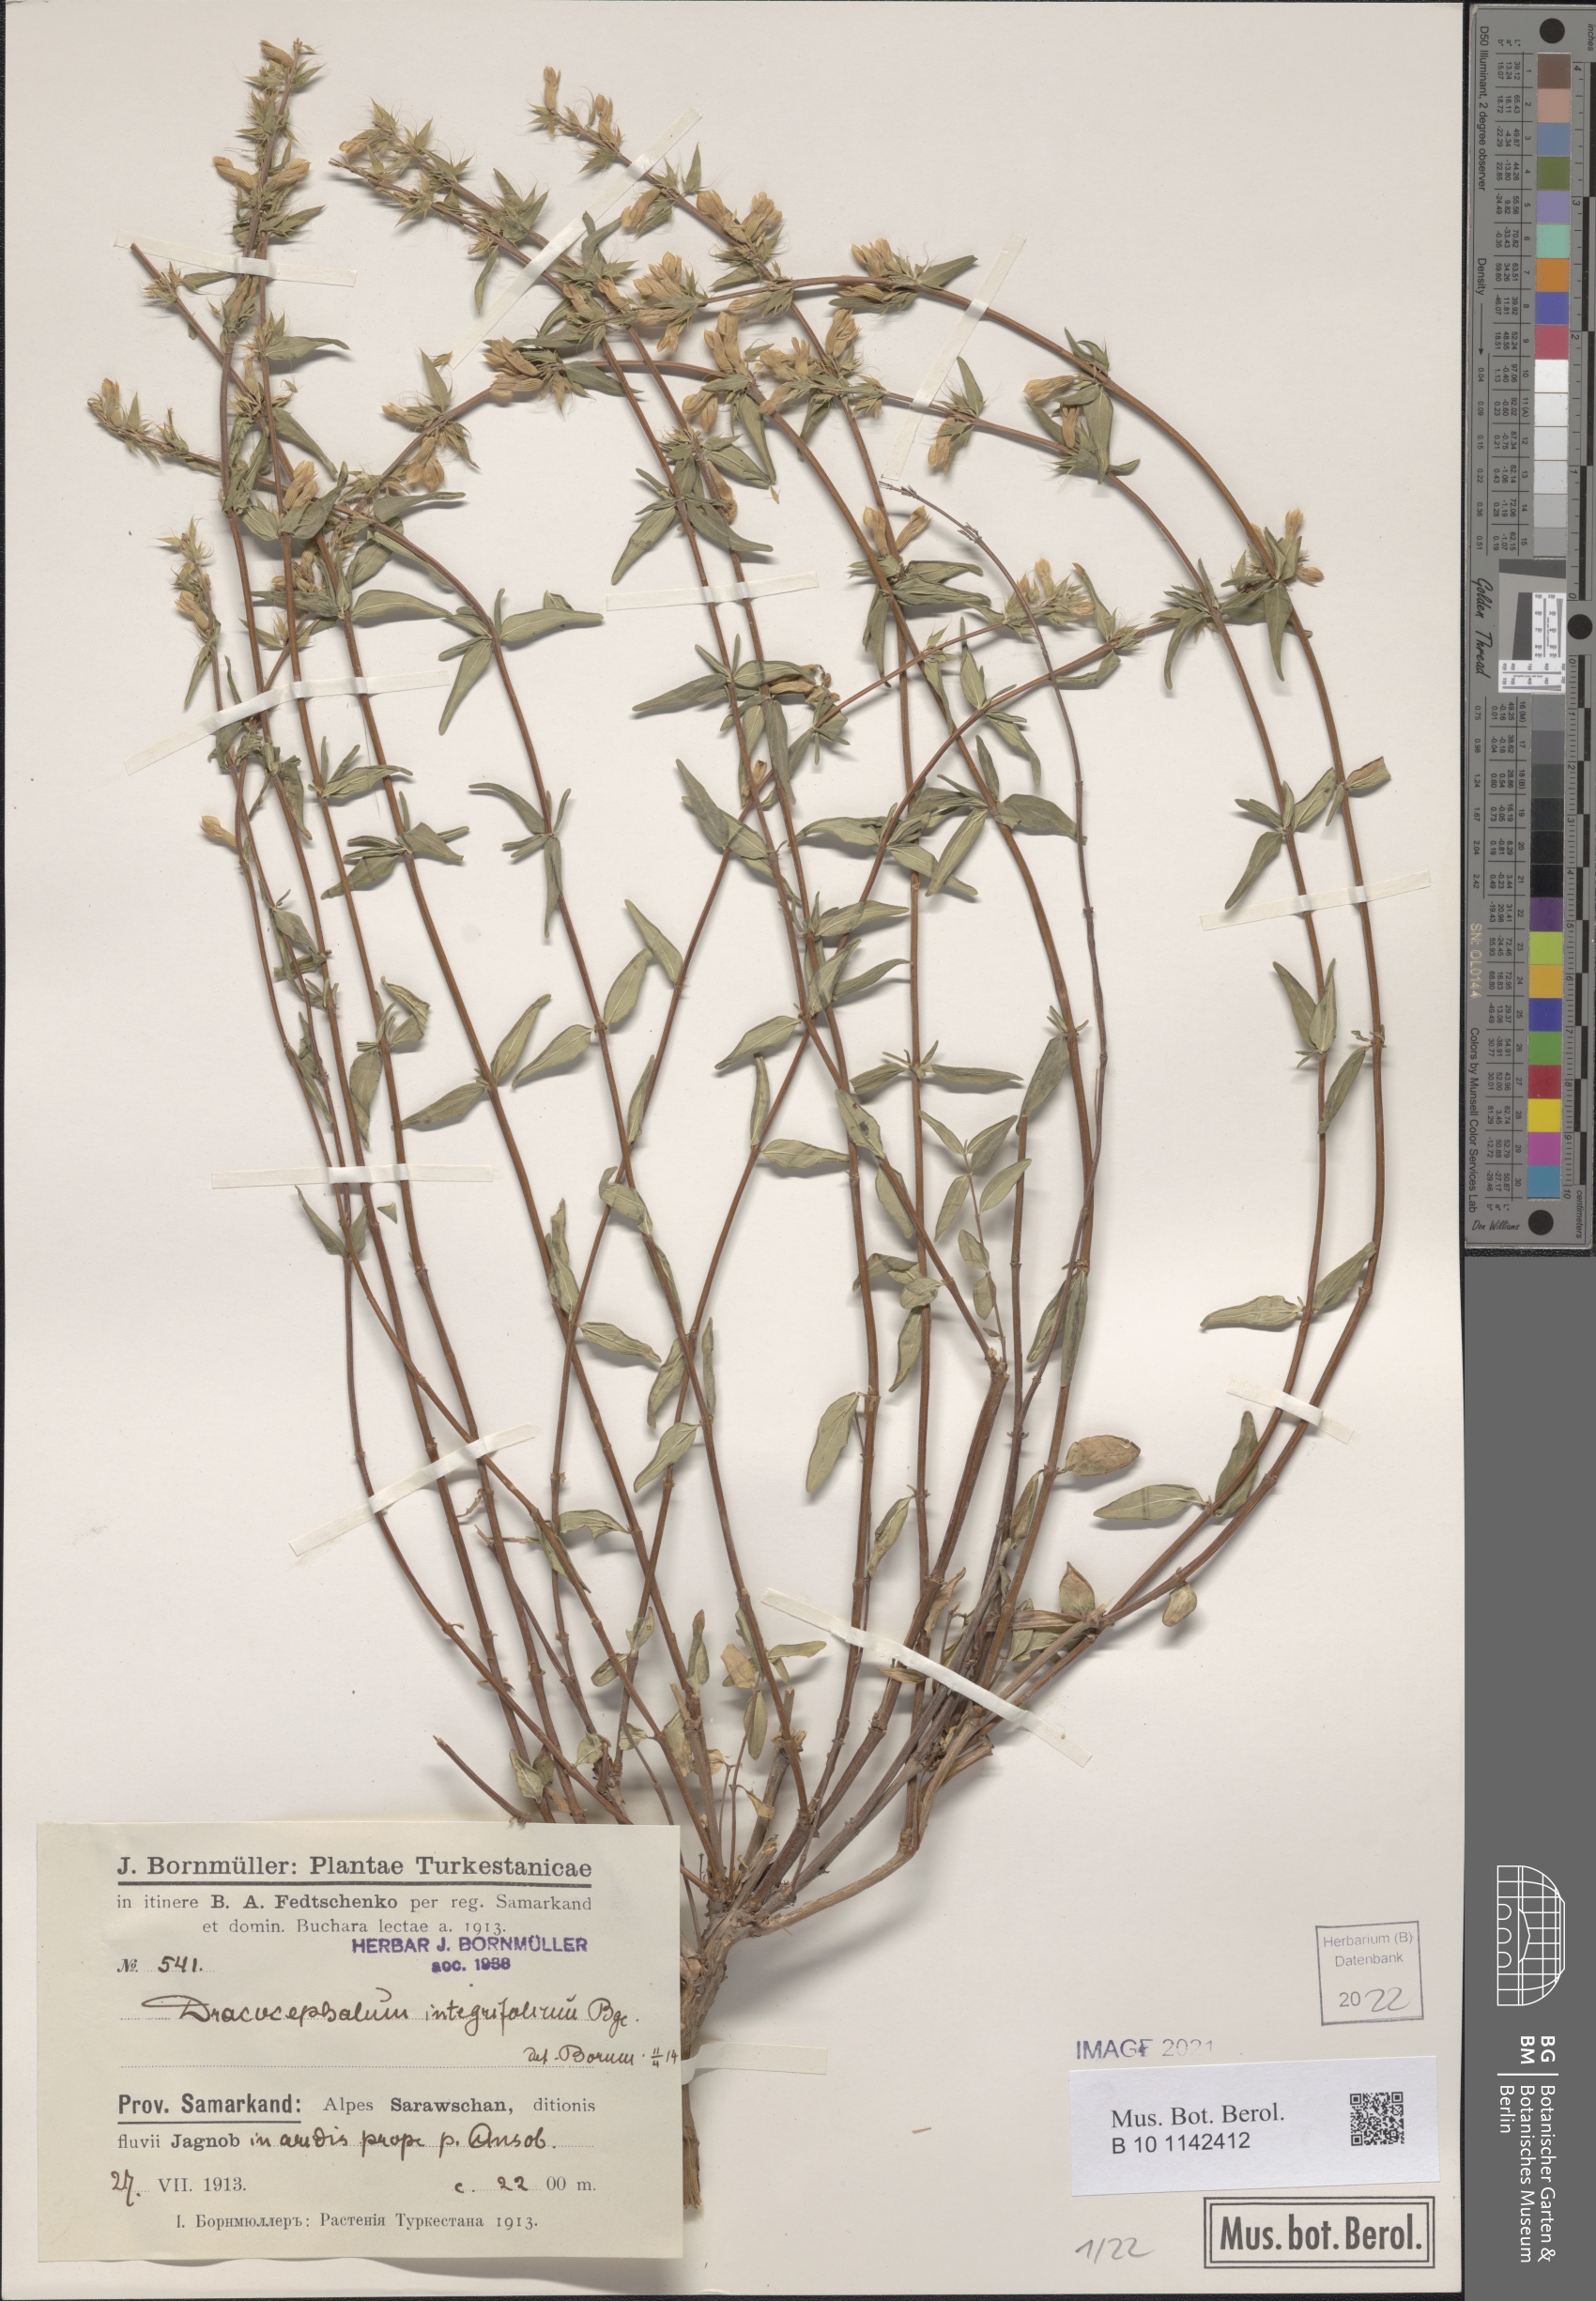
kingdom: Plantae
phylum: Tracheophyta
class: Magnoliopsida
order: Lamiales
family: Lamiaceae
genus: Dracocephalum
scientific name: Dracocephalum integrifolium
